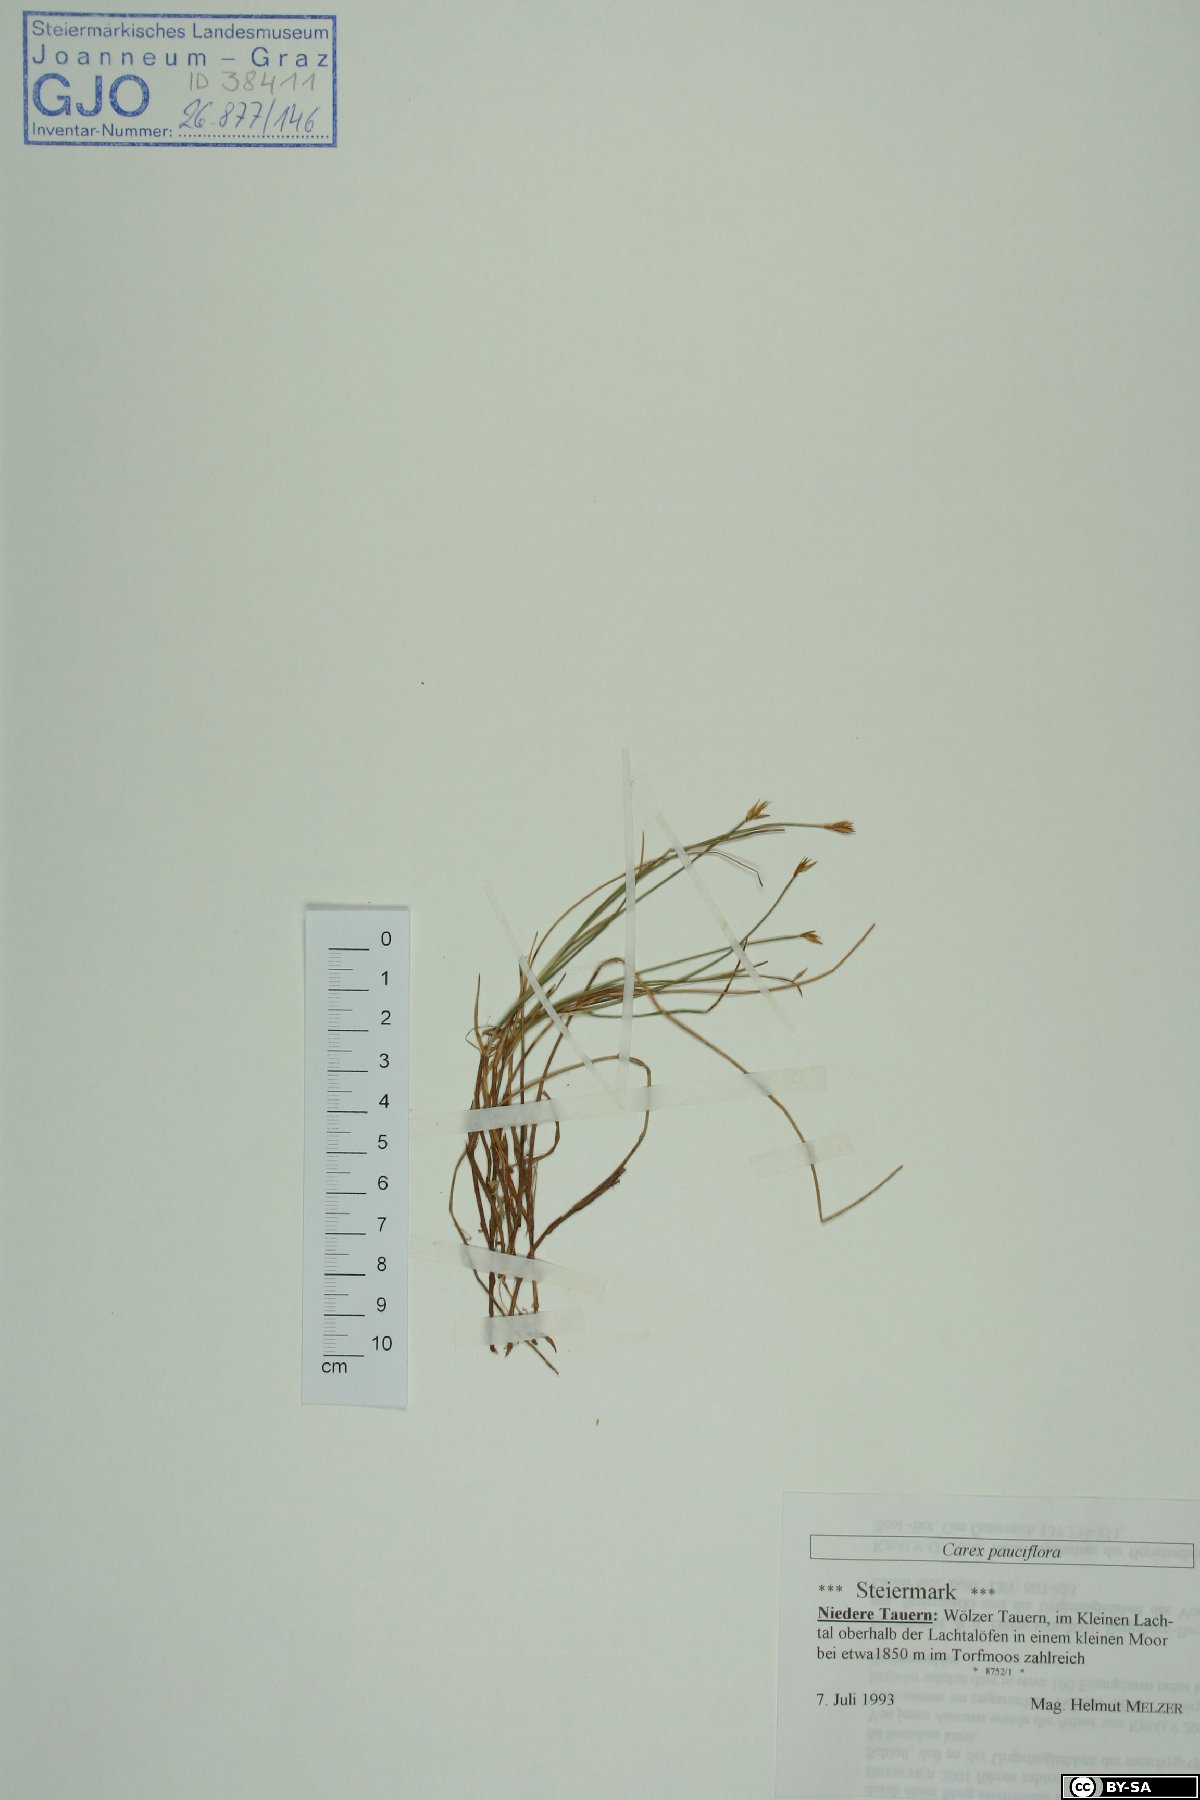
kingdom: Plantae
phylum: Bryophyta
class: Bryopsida
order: Grimmiales
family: Grimmiaceae
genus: Racomitrium
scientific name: Racomitrium lanuginosum
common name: Hoary rock moss
